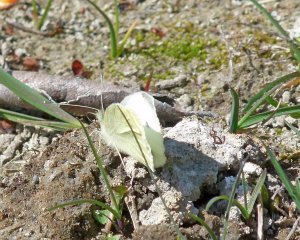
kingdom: Animalia
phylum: Arthropoda
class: Insecta
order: Lepidoptera
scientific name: Lepidoptera
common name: Butterflies
